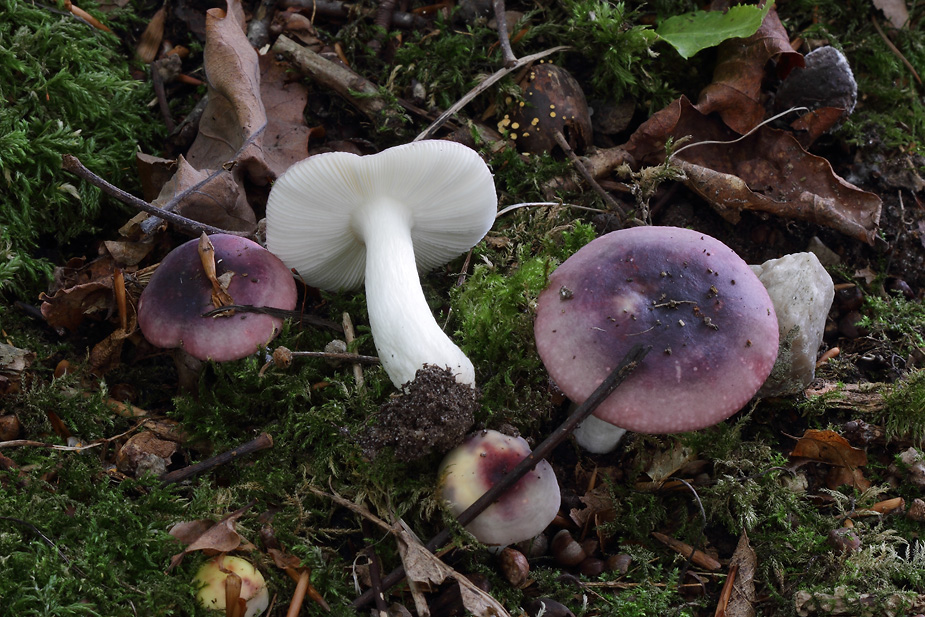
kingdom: Fungi
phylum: Basidiomycota
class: Agaricomycetes
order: Russulales
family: Russulaceae
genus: Russula
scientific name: Russula fragilis
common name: savbladet skørhat
